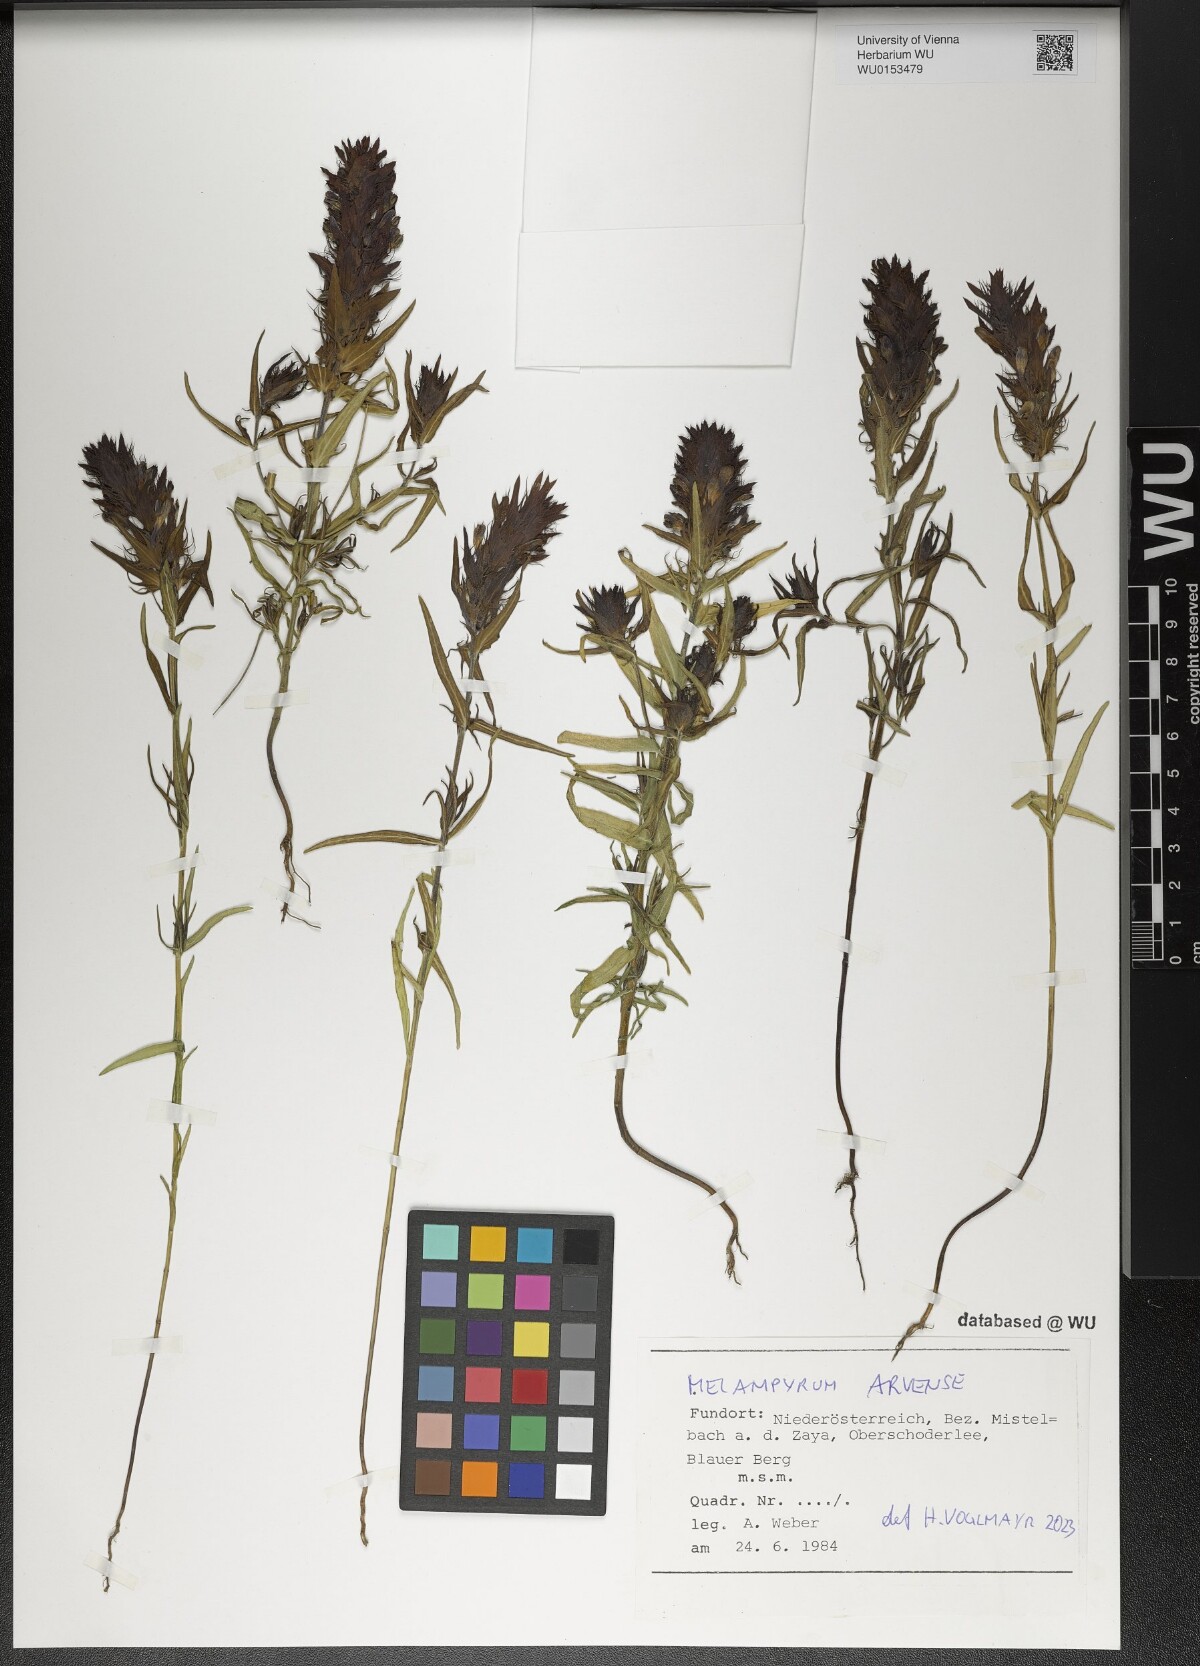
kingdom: Plantae
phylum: Tracheophyta
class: Magnoliopsida
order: Lamiales
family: Orobanchaceae
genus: Melampyrum
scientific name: Melampyrum arvense
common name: Field cow-wheat
